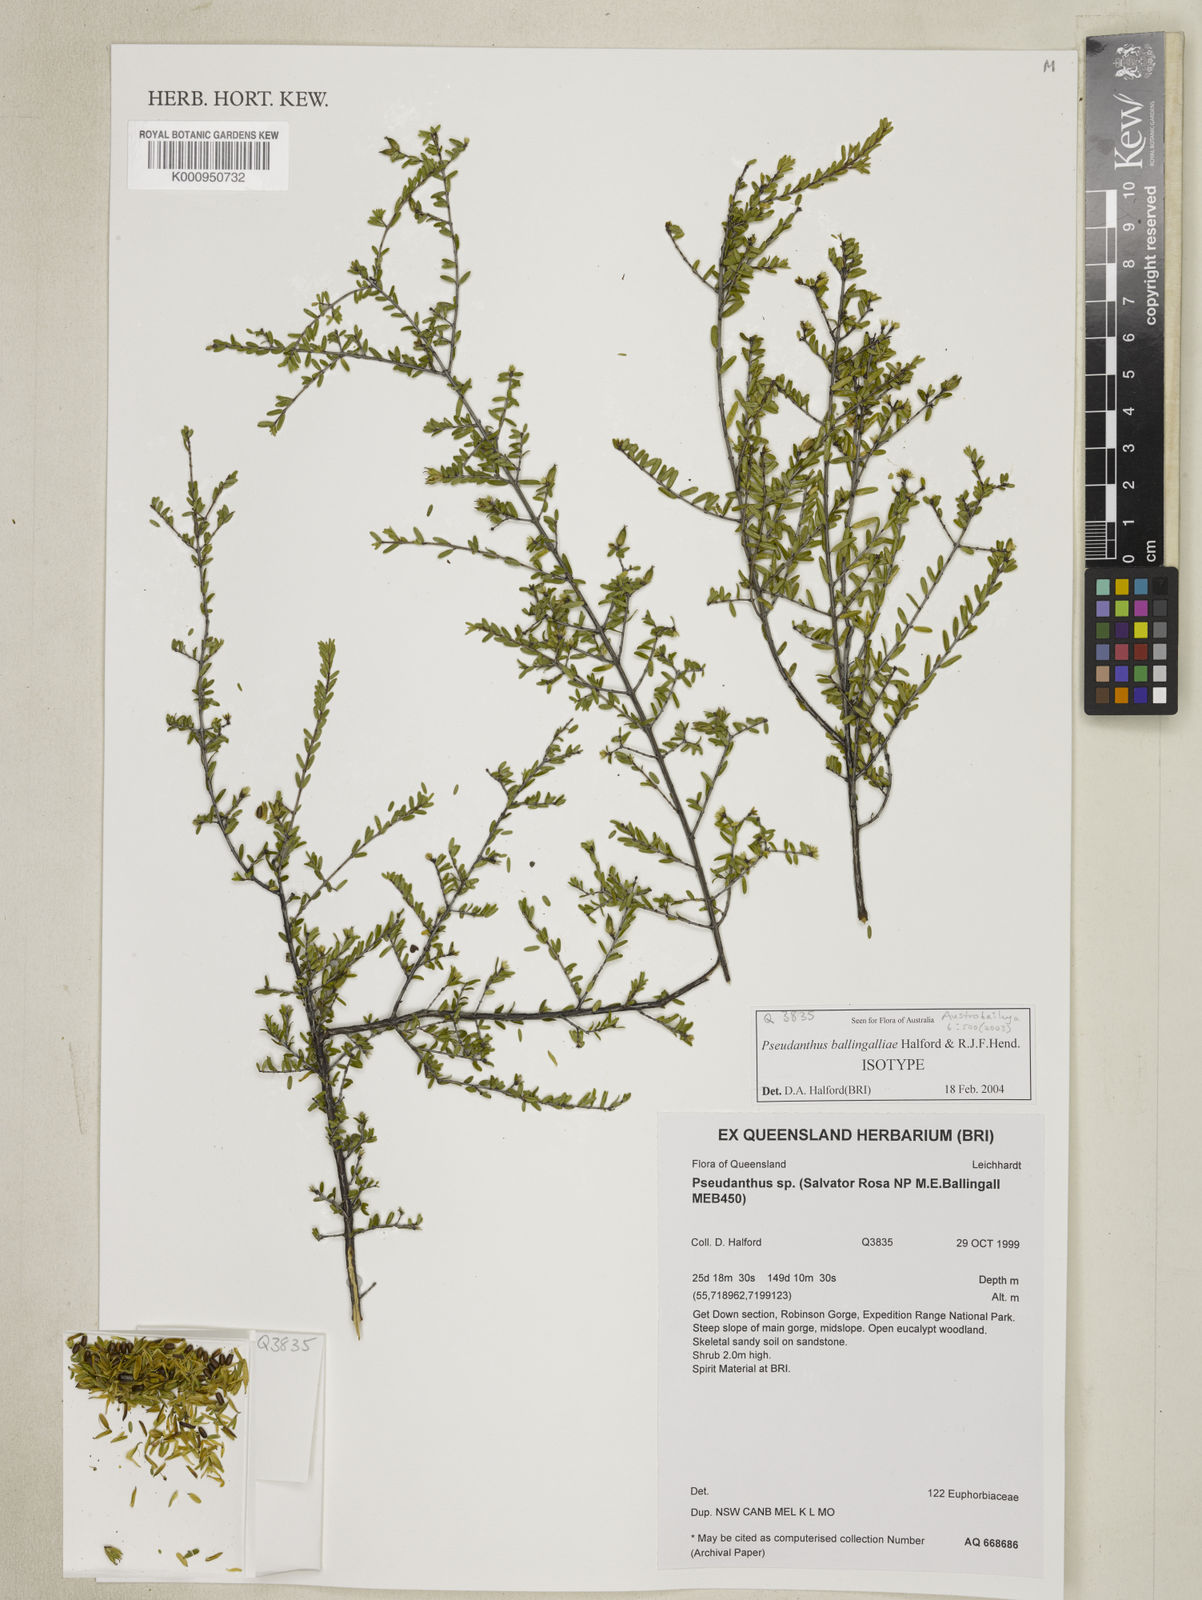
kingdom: Plantae
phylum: Tracheophyta
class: Magnoliopsida
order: Malpighiales
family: Picrodendraceae
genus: Pseudanthus
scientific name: Pseudanthus ballingalliae
